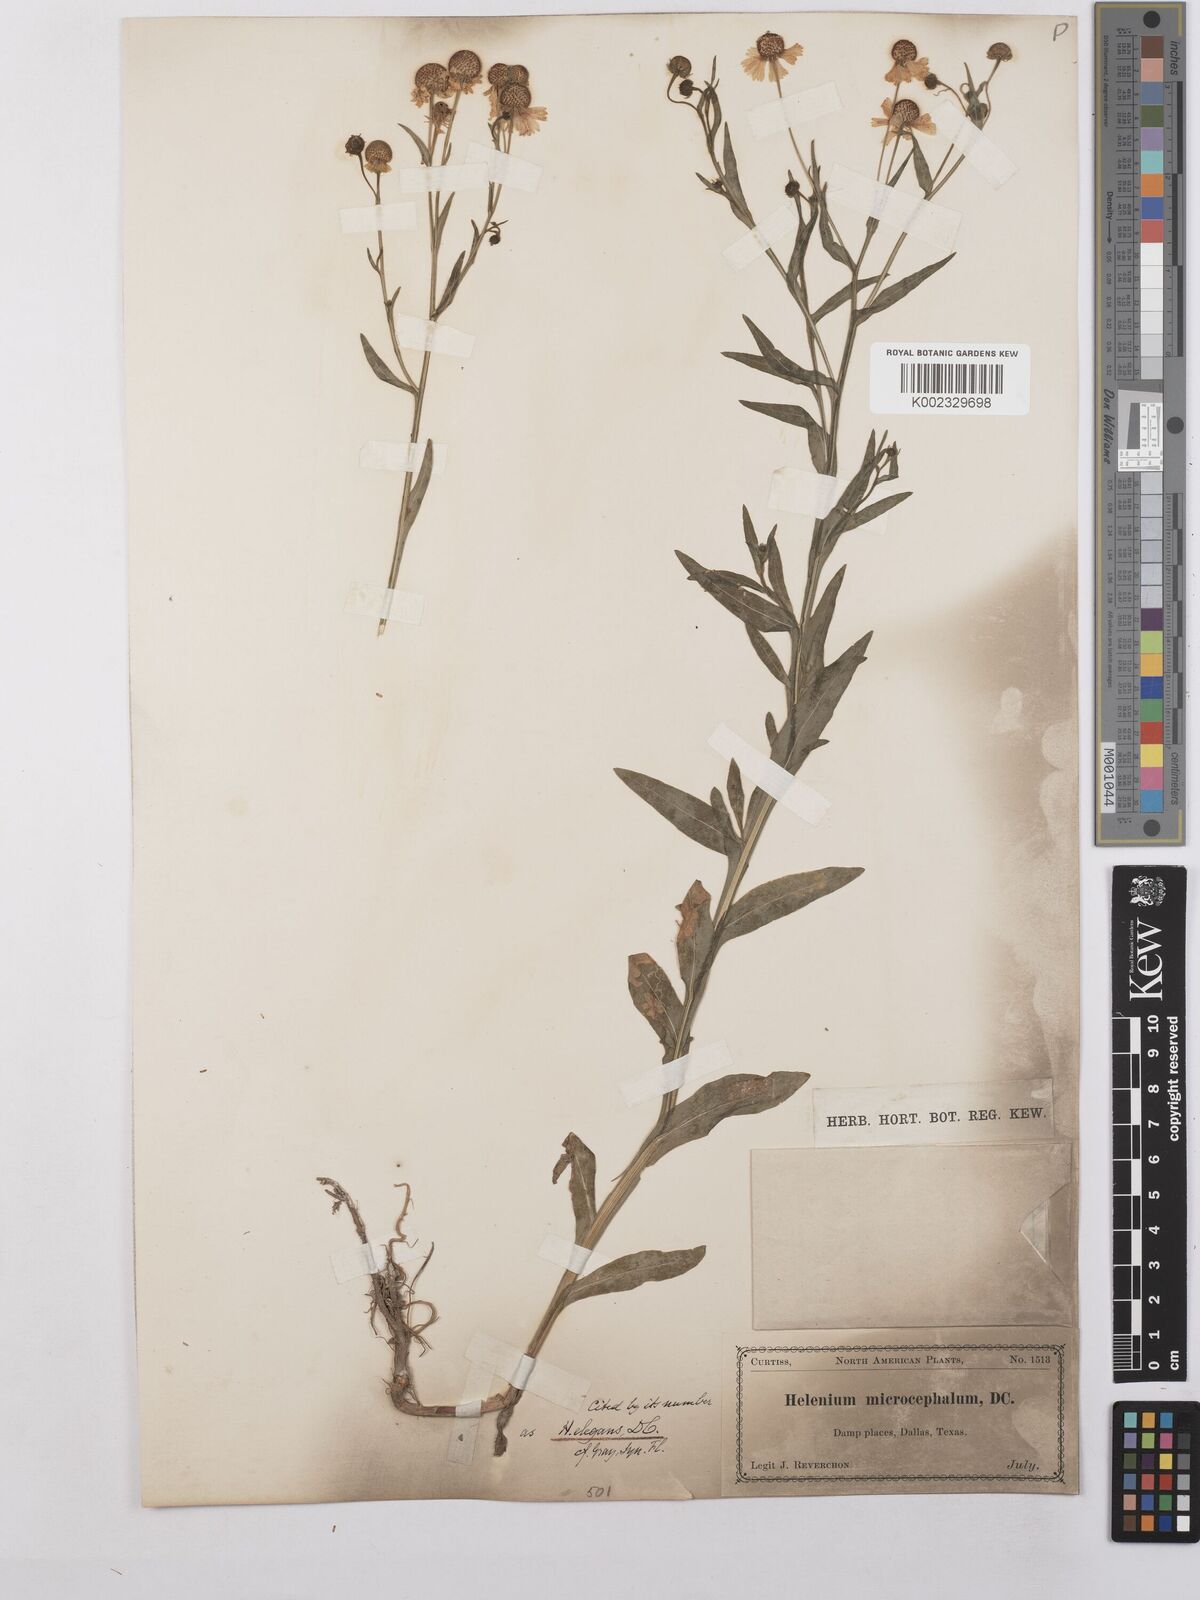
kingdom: Plantae
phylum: Tracheophyta
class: Magnoliopsida
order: Asterales
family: Asteraceae
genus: Helenium
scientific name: Helenium elegans
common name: Pretty sneezeweed
